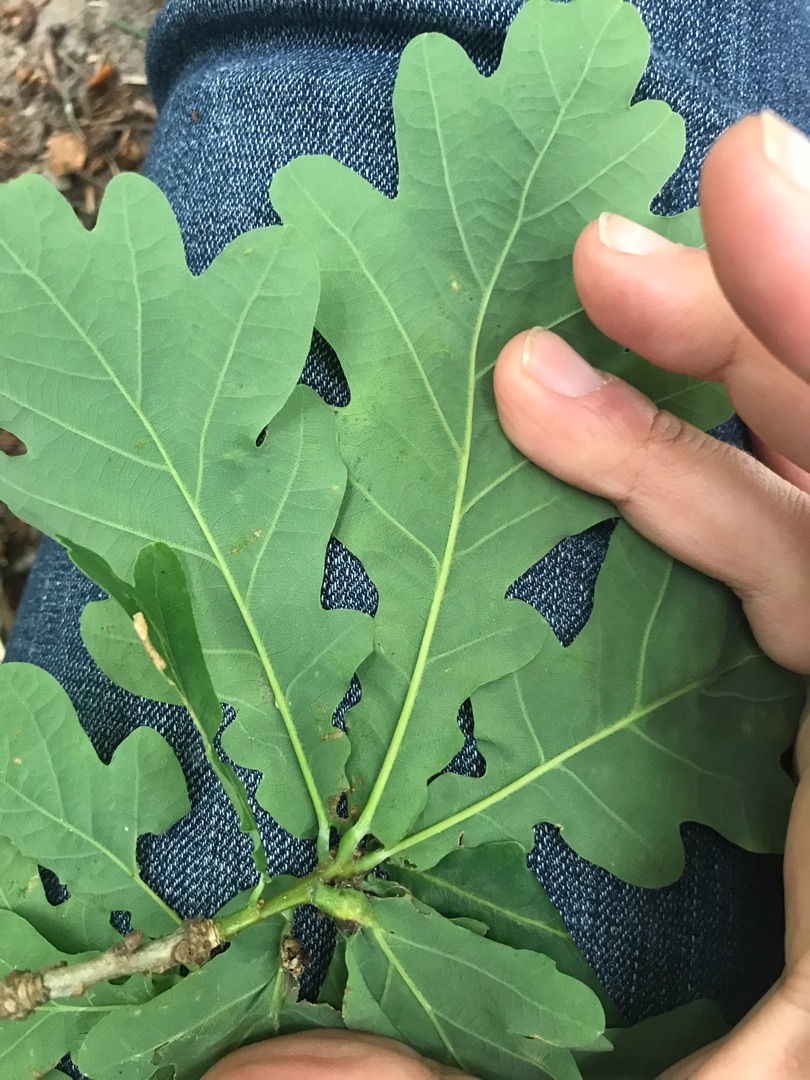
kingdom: Plantae
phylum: Tracheophyta
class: Magnoliopsida
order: Fagales
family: Fagaceae
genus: Quercus
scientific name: Quercus robur
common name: Stilk-eg/almindelig eg
